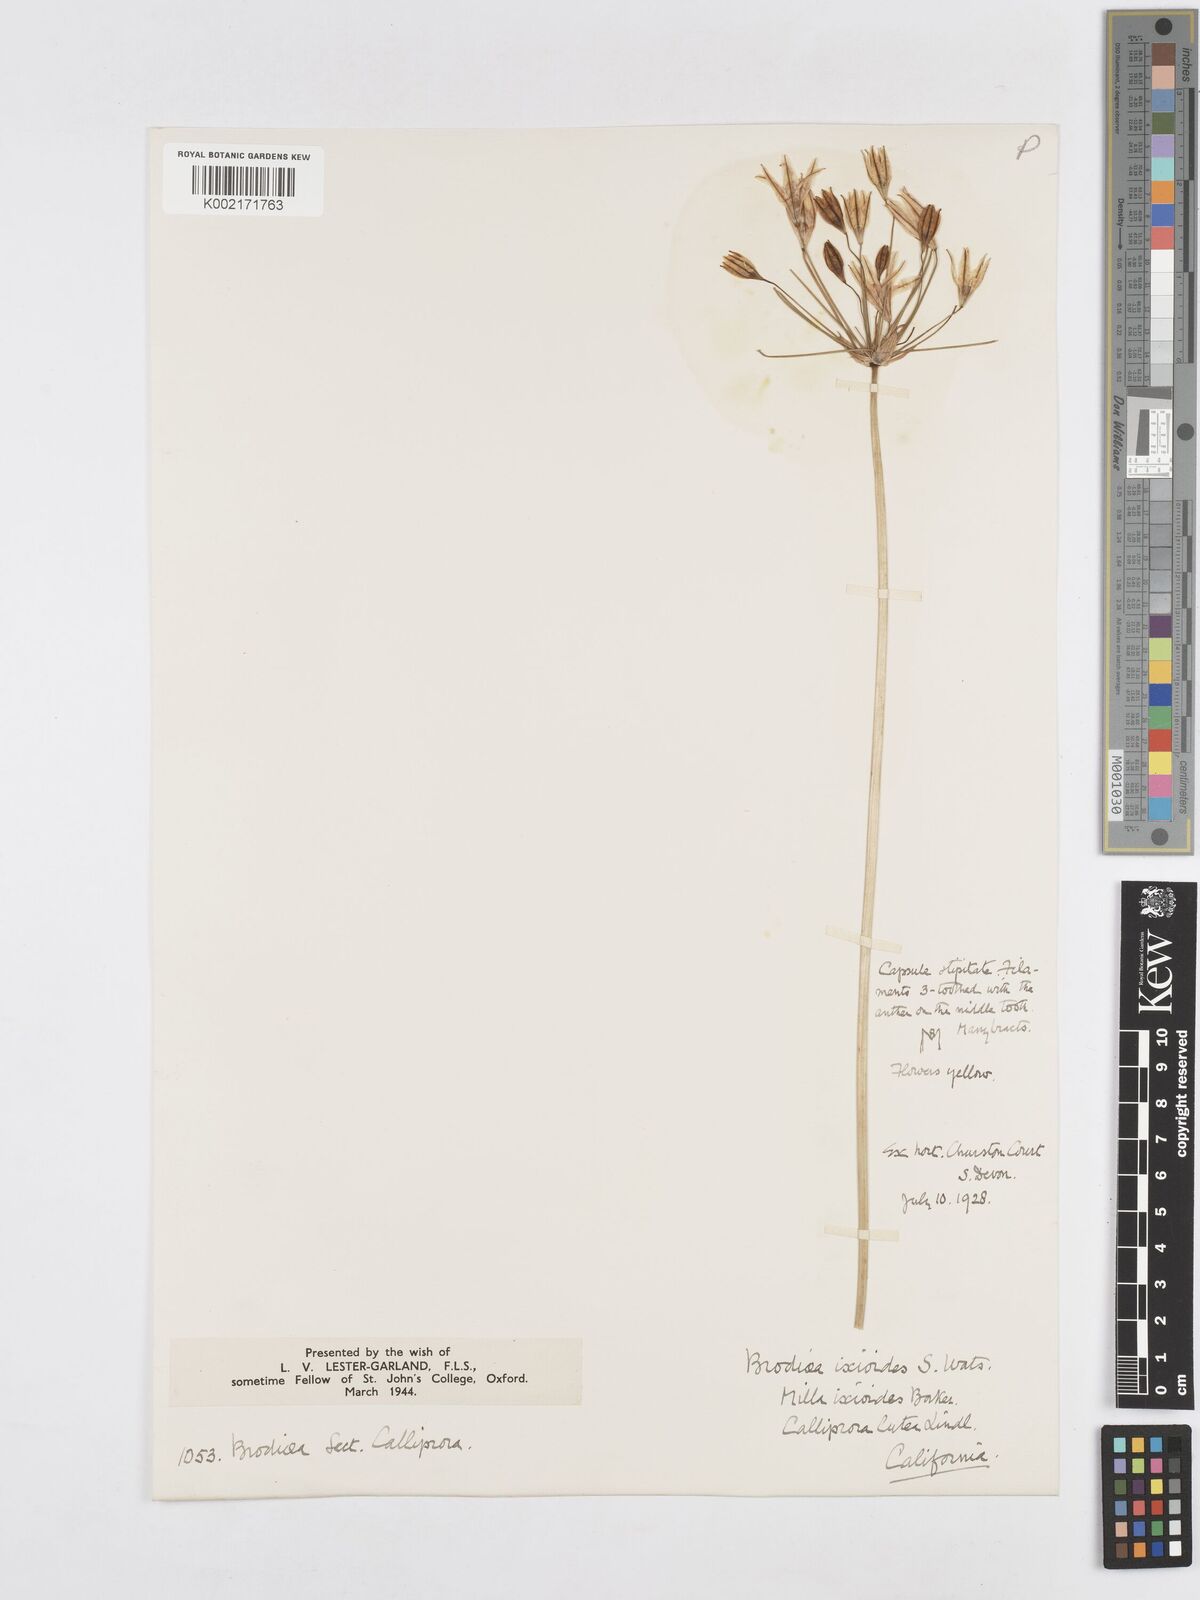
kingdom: Plantae
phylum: Tracheophyta
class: Liliopsida
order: Asparagales
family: Asparagaceae
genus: Triteleia
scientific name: Triteleia ixioides
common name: Yellow-brodiaea
